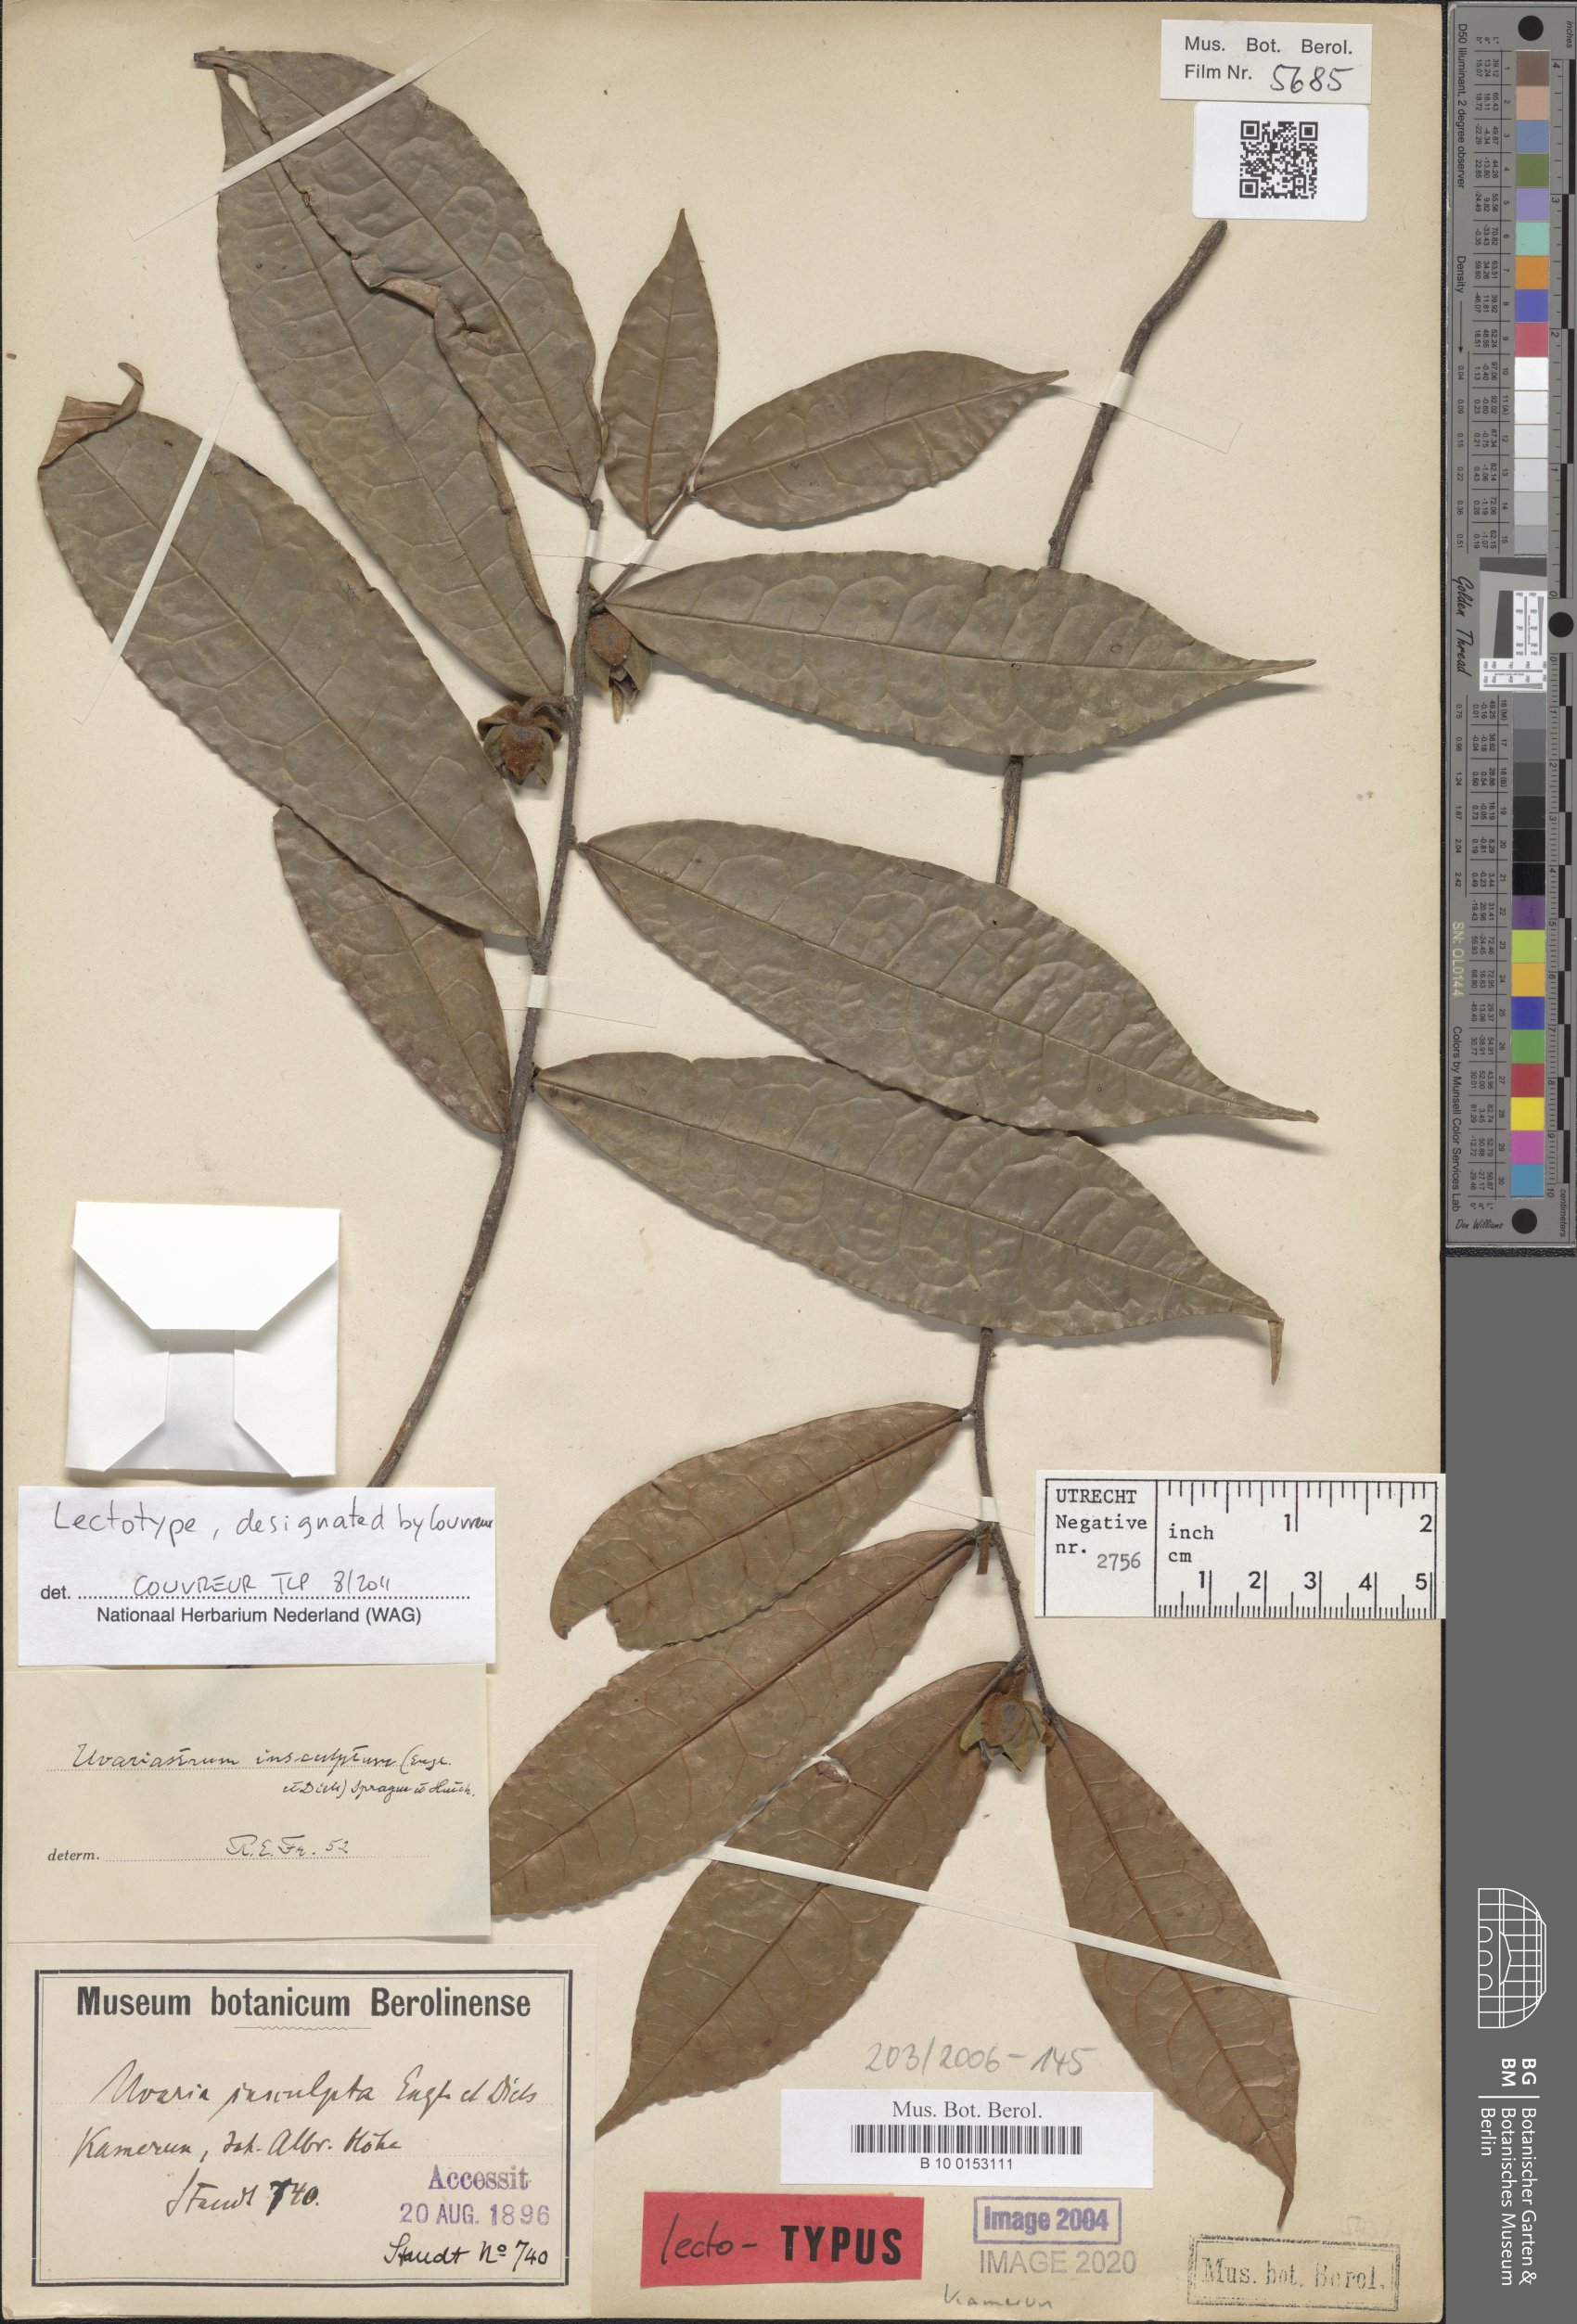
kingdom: Plantae
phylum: Tracheophyta
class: Magnoliopsida
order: Magnoliales
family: Annonaceae
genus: Uvariastrum
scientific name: Uvariastrum pierreanum
